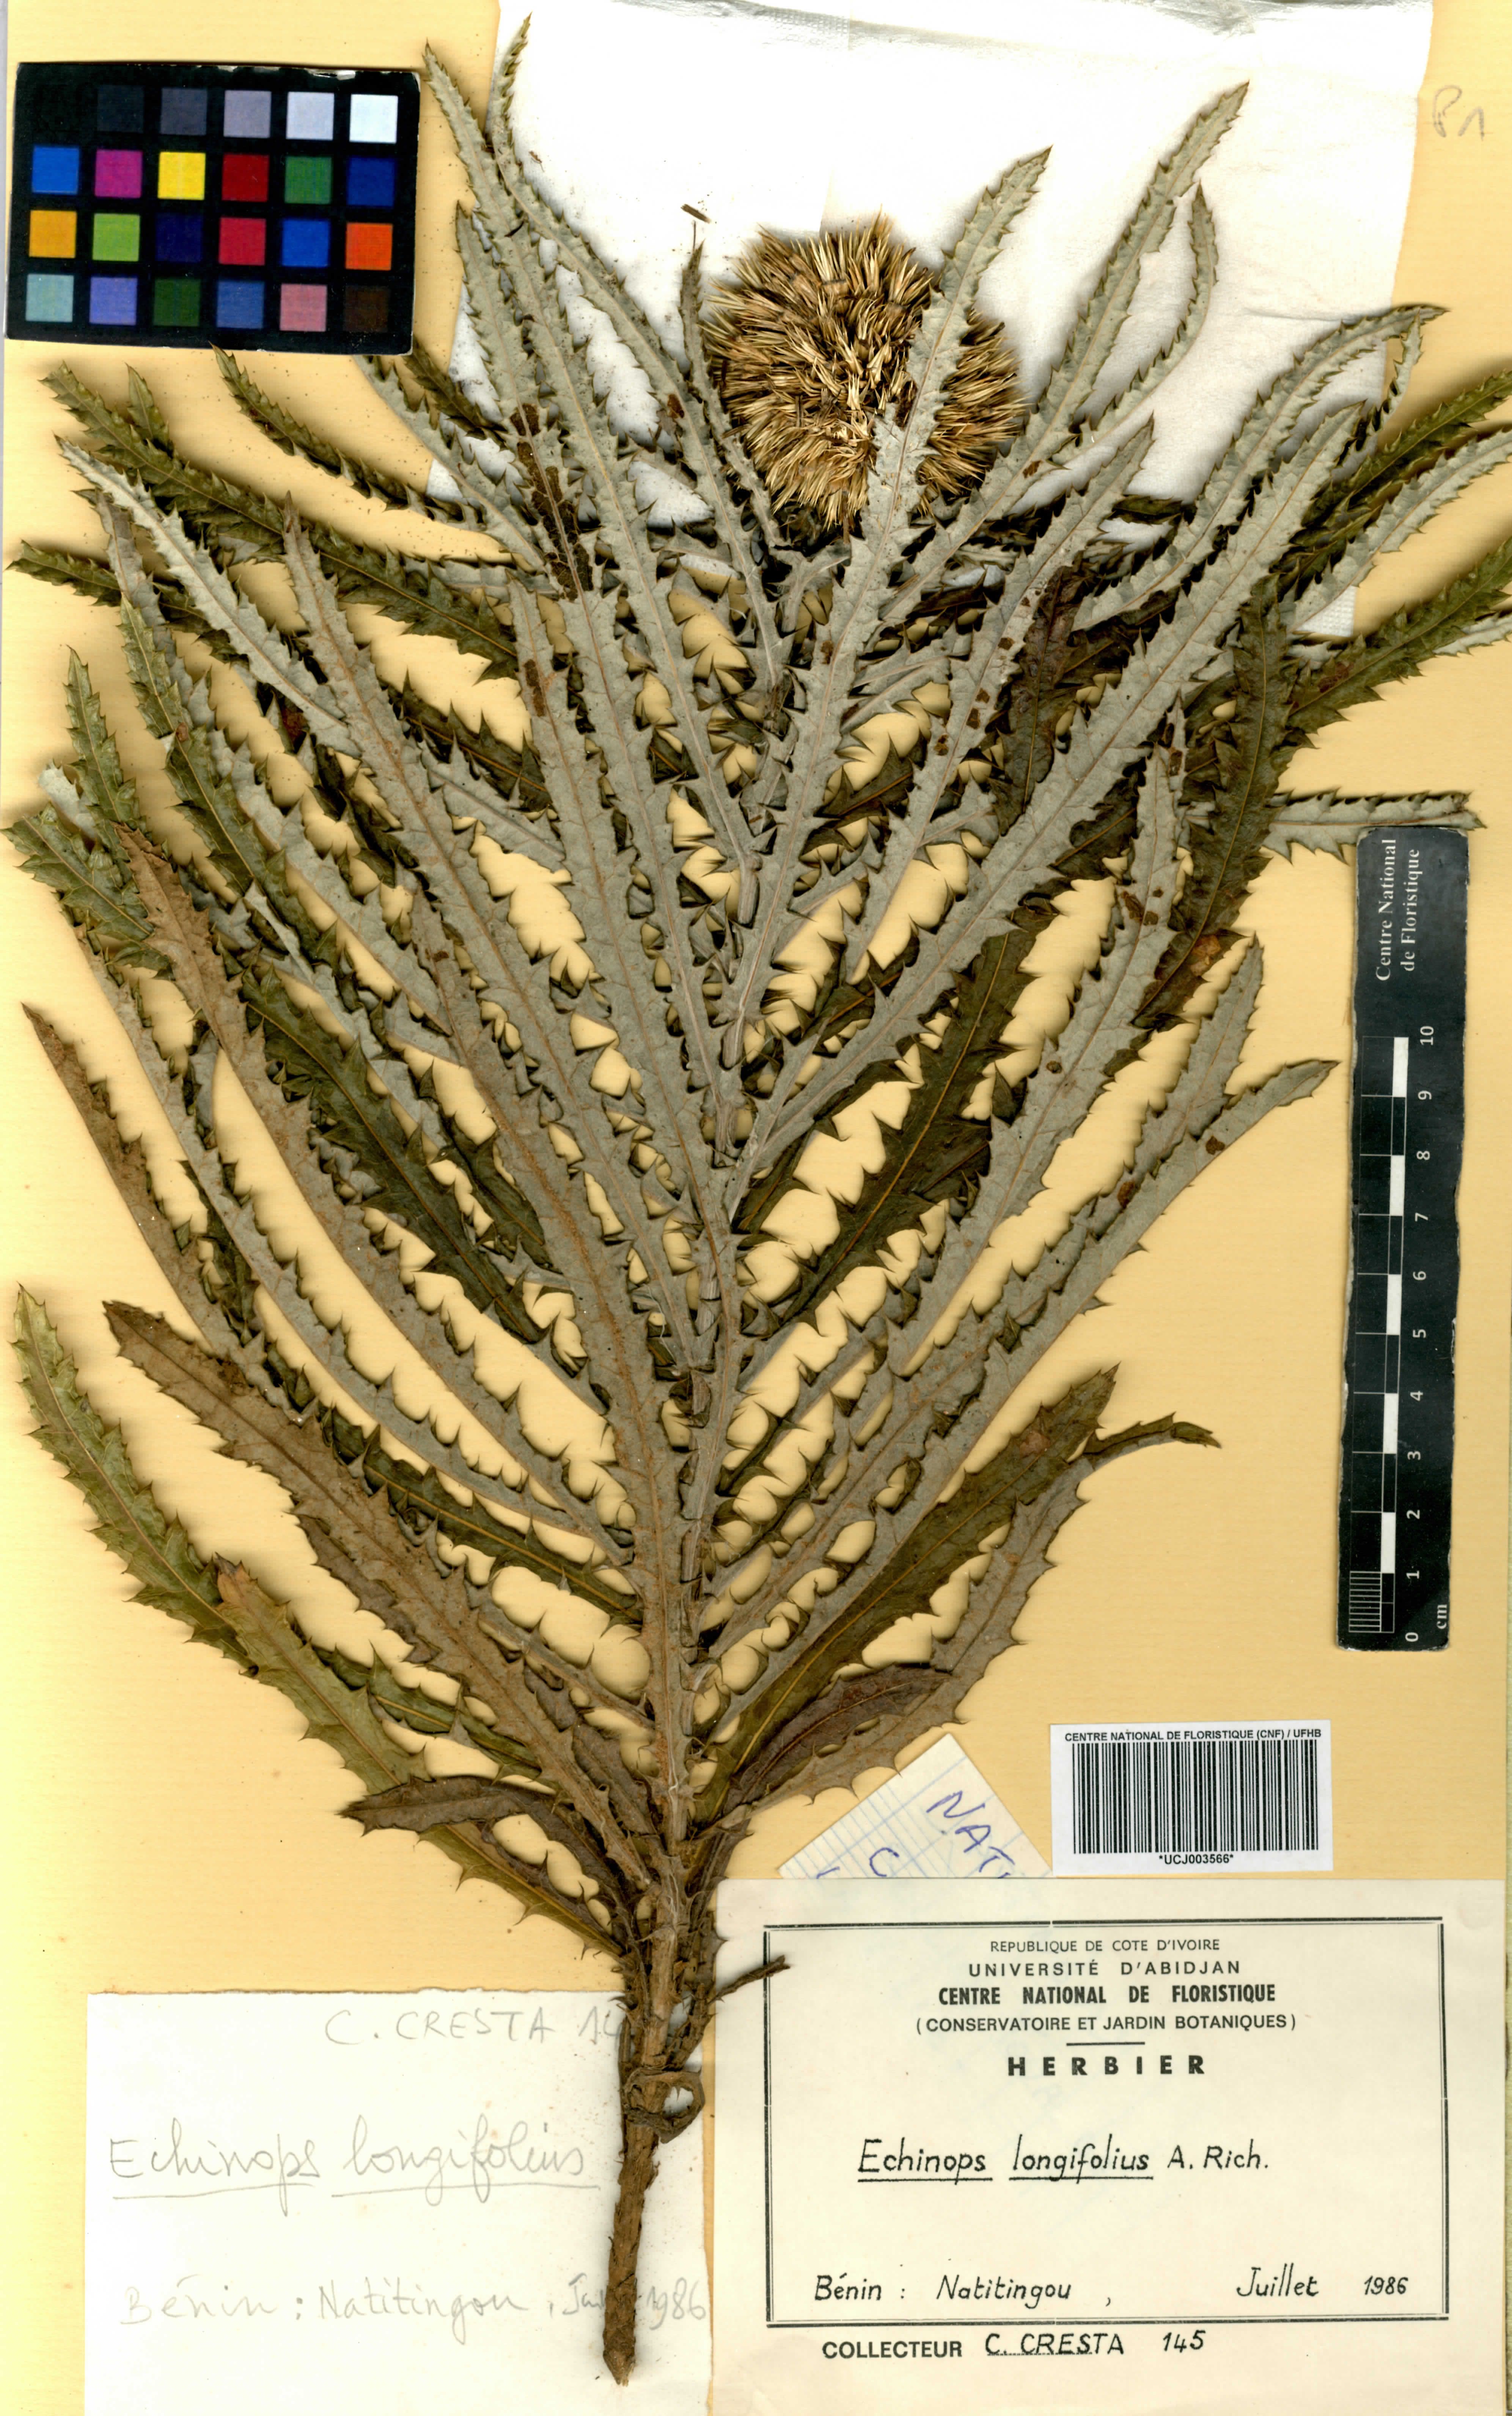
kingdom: Plantae
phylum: Tracheophyta
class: Magnoliopsida
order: Asterales
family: Asteraceae
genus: Echinops
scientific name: Echinops longifolius
